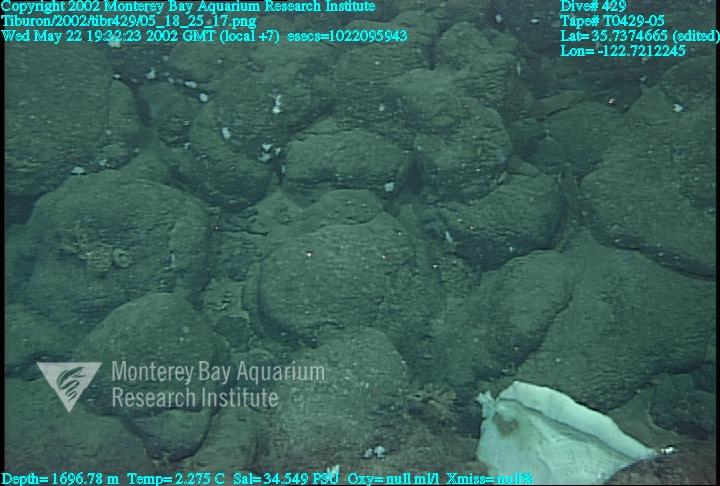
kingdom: Animalia
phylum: Porifera
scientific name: Porifera
